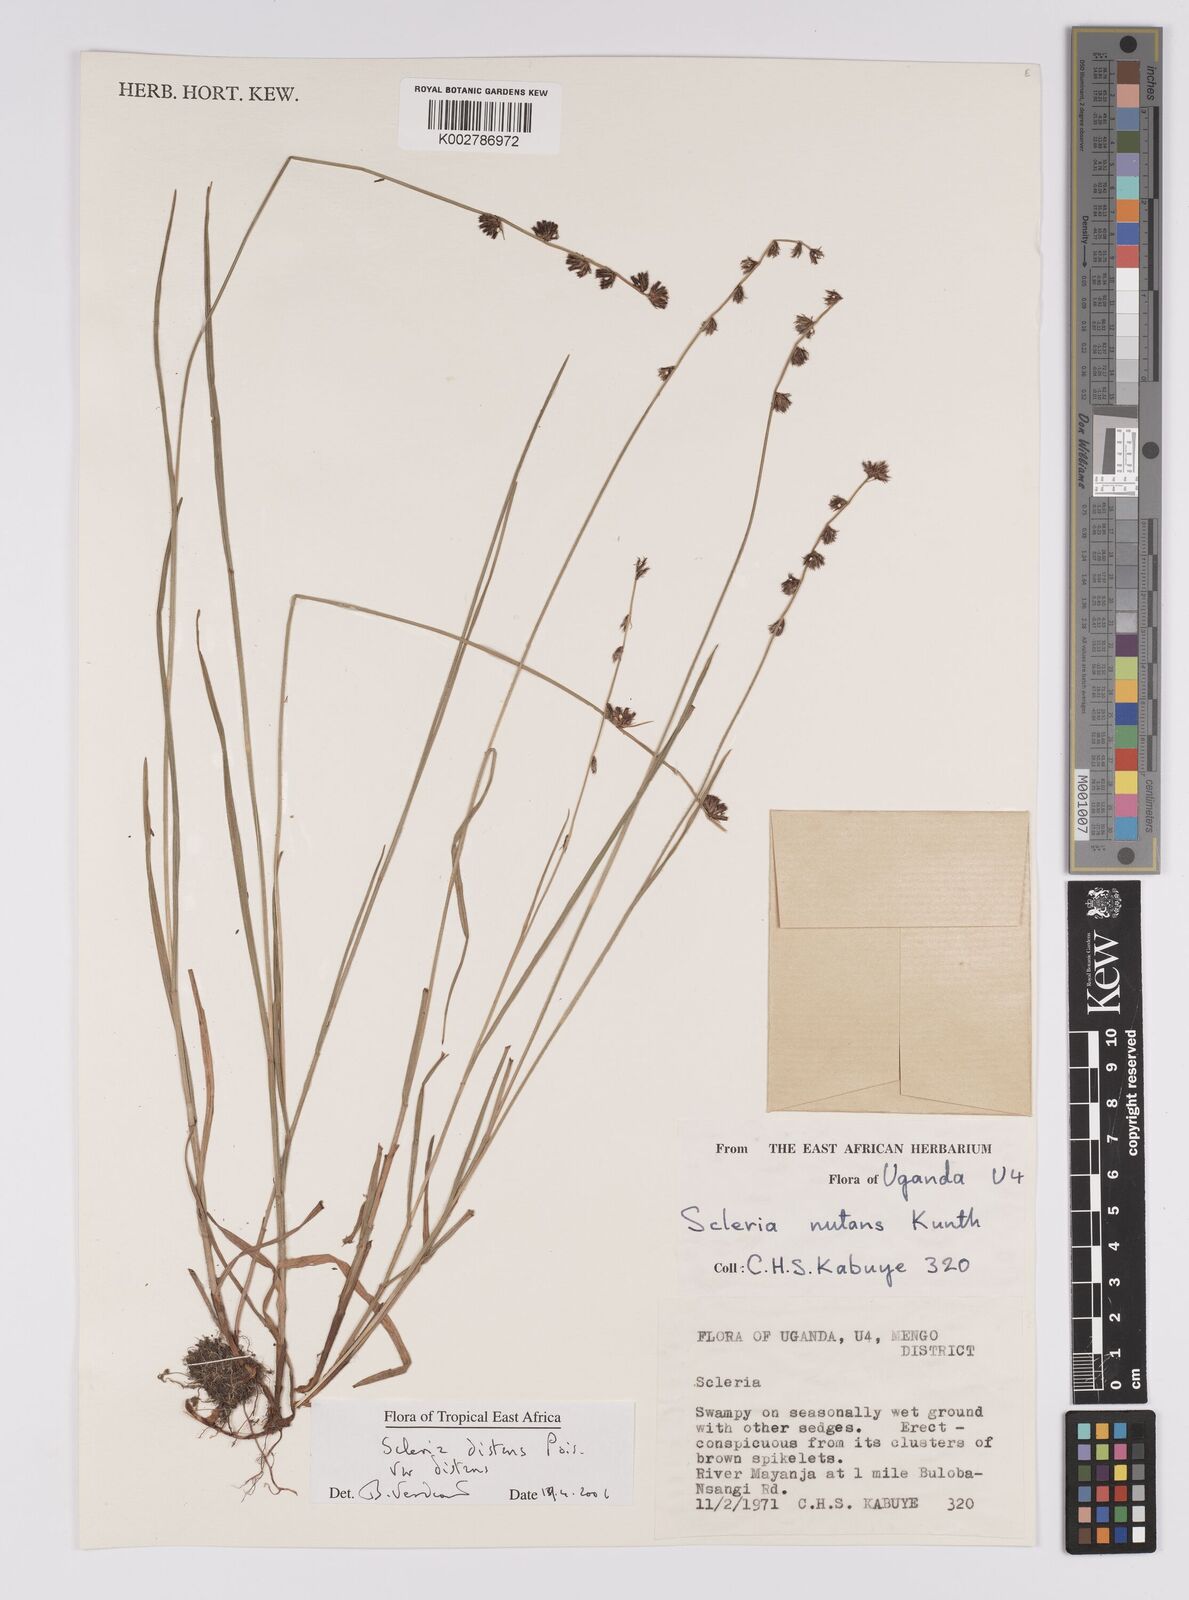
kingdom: Plantae
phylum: Tracheophyta
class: Liliopsida
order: Poales
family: Cyperaceae
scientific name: Cyperaceae
